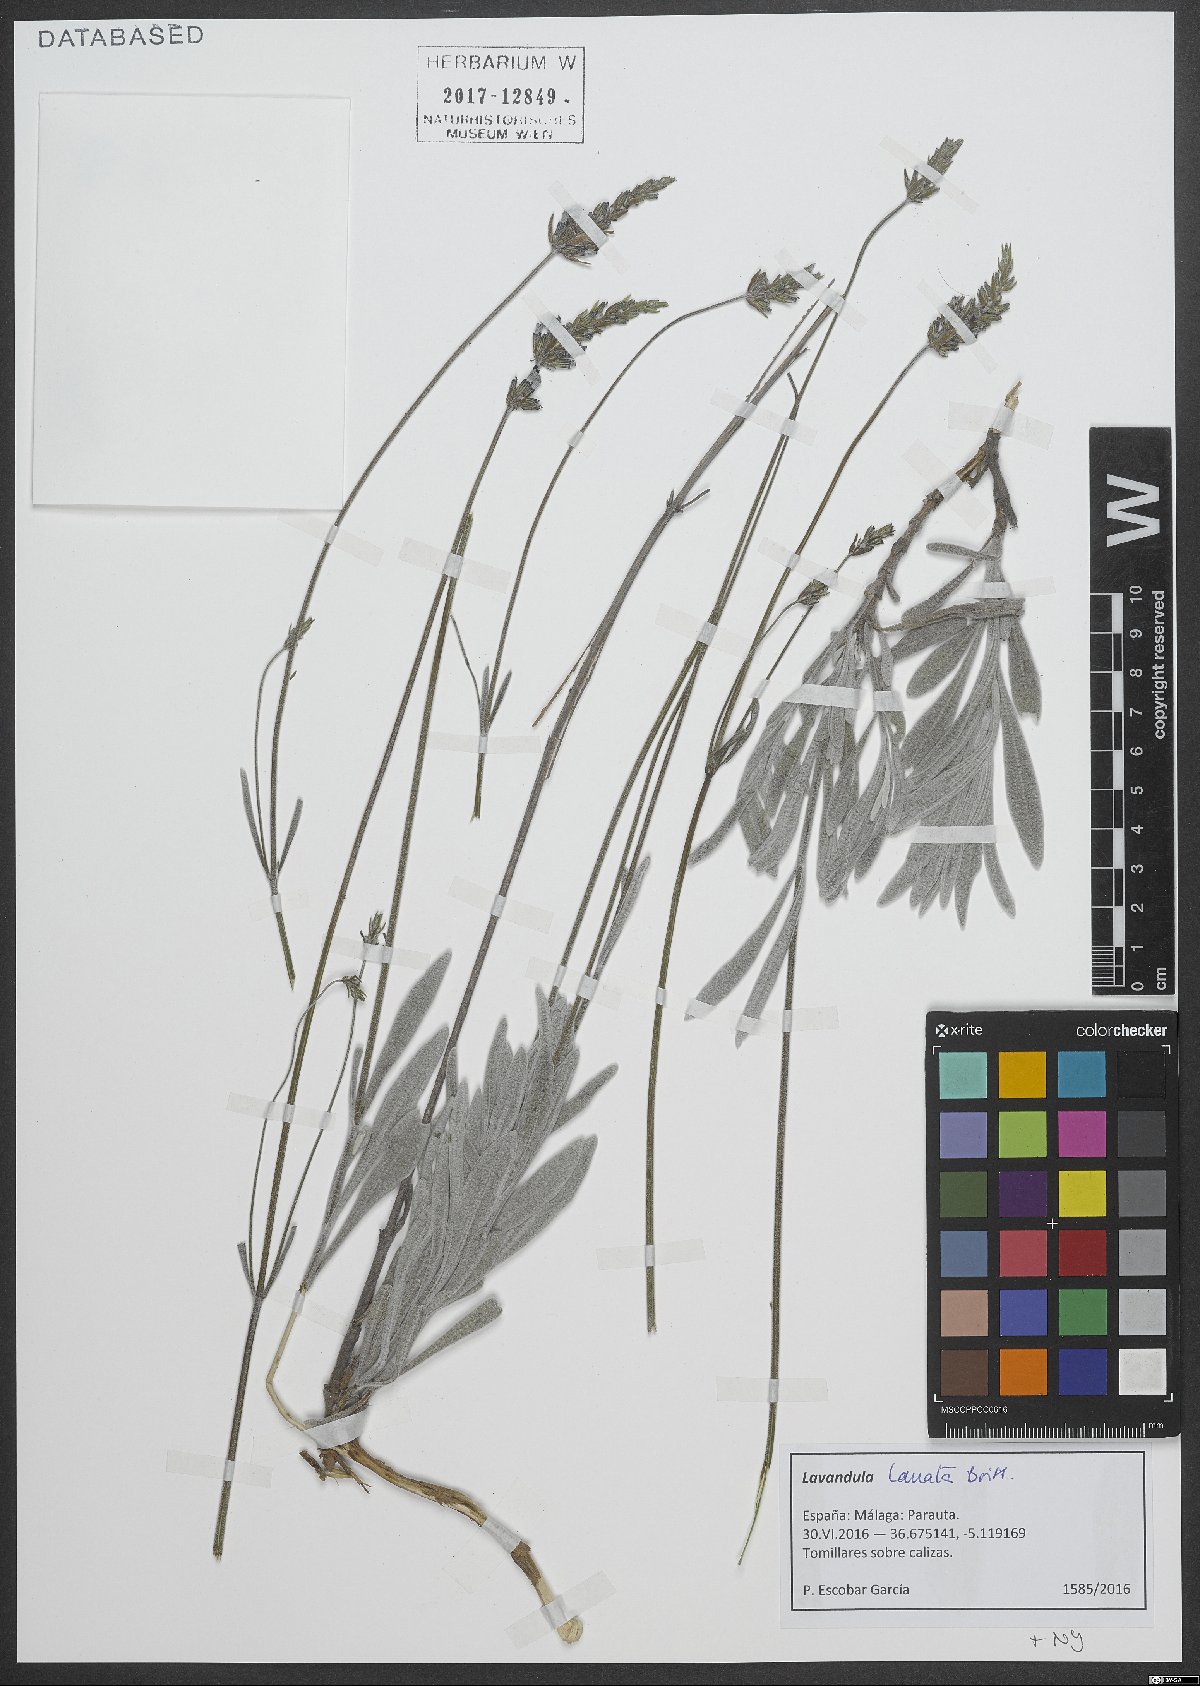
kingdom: Plantae
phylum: Tracheophyta
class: Magnoliopsida
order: Lamiales
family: Lamiaceae
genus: Lavandula
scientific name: Lavandula lanata
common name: Woolly lavender
